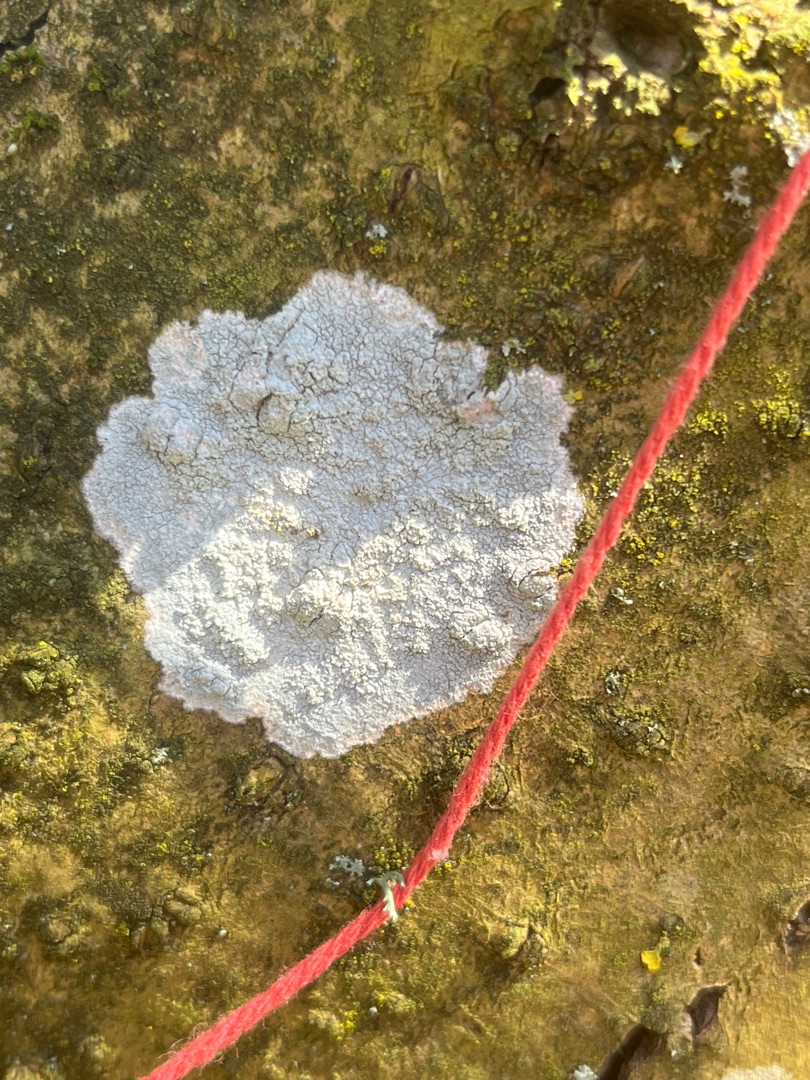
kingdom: Fungi
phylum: Ascomycota
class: Lecanoromycetes
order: Ostropales
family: Phlyctidaceae
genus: Phlyctis
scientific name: Phlyctis argena
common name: Almindelig sølvlav
